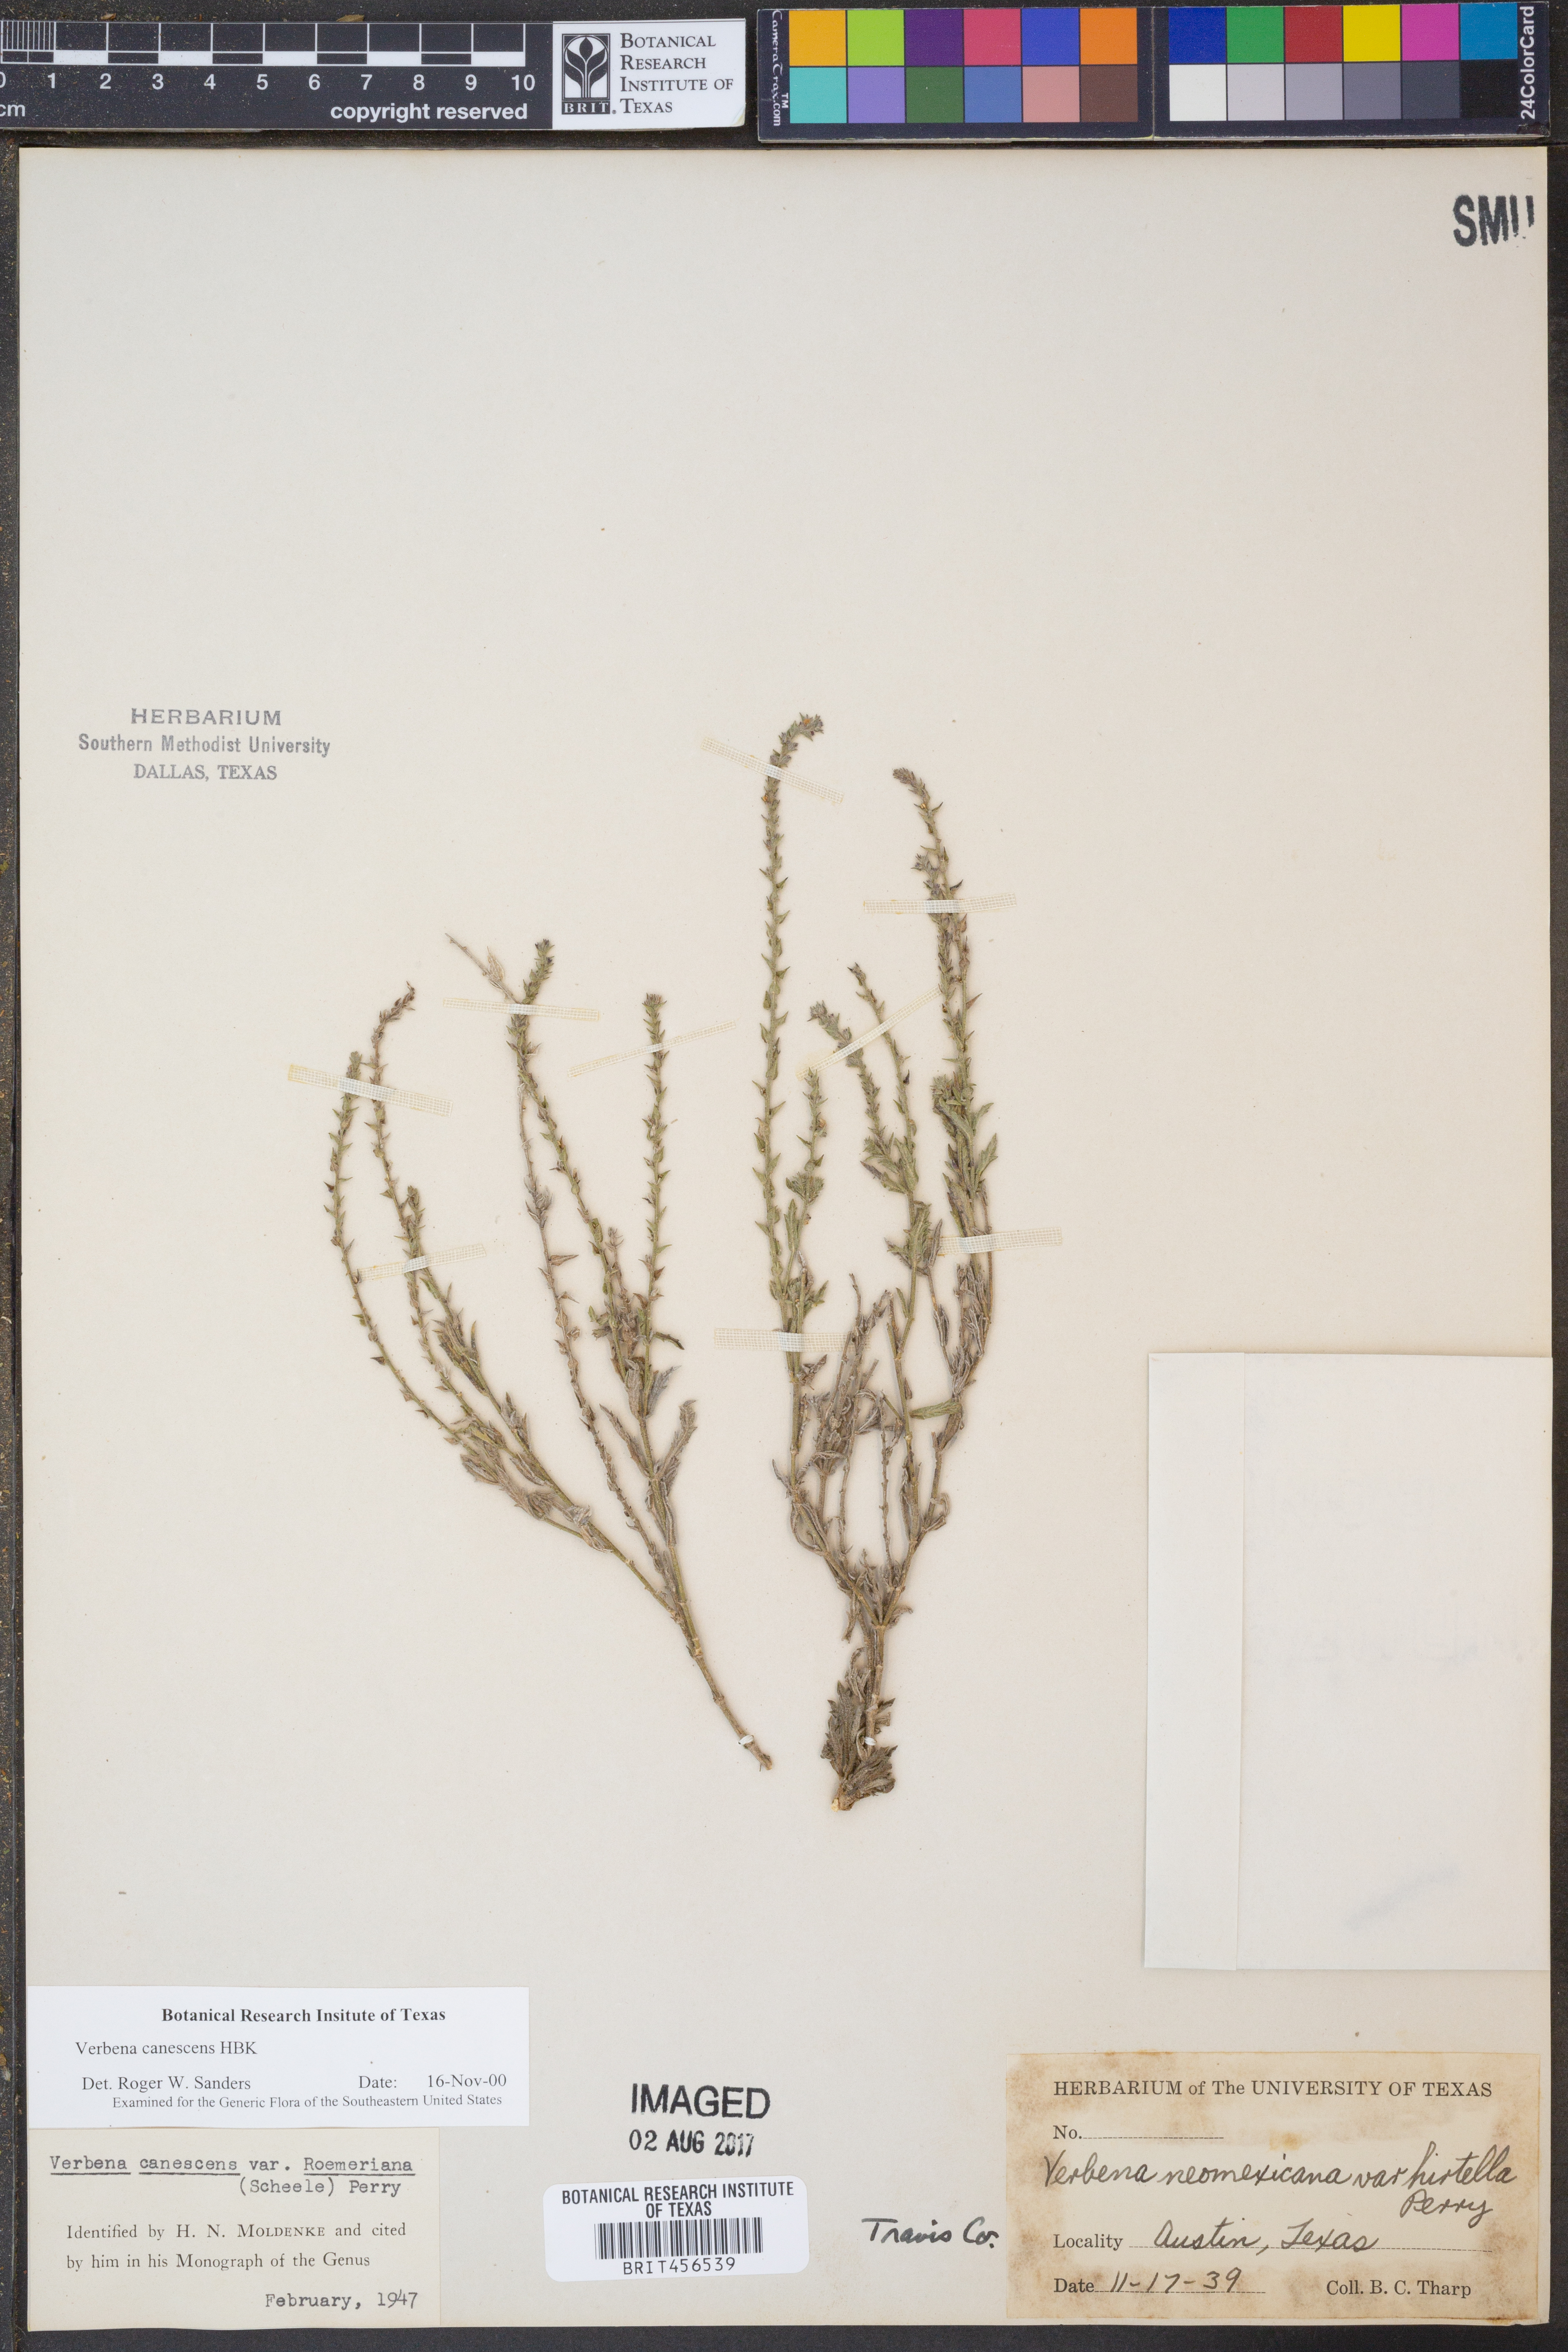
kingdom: Plantae
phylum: Tracheophyta
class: Magnoliopsida
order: Lamiales
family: Verbenaceae
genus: Verbena
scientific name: Verbena canescens
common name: Gray vervain
